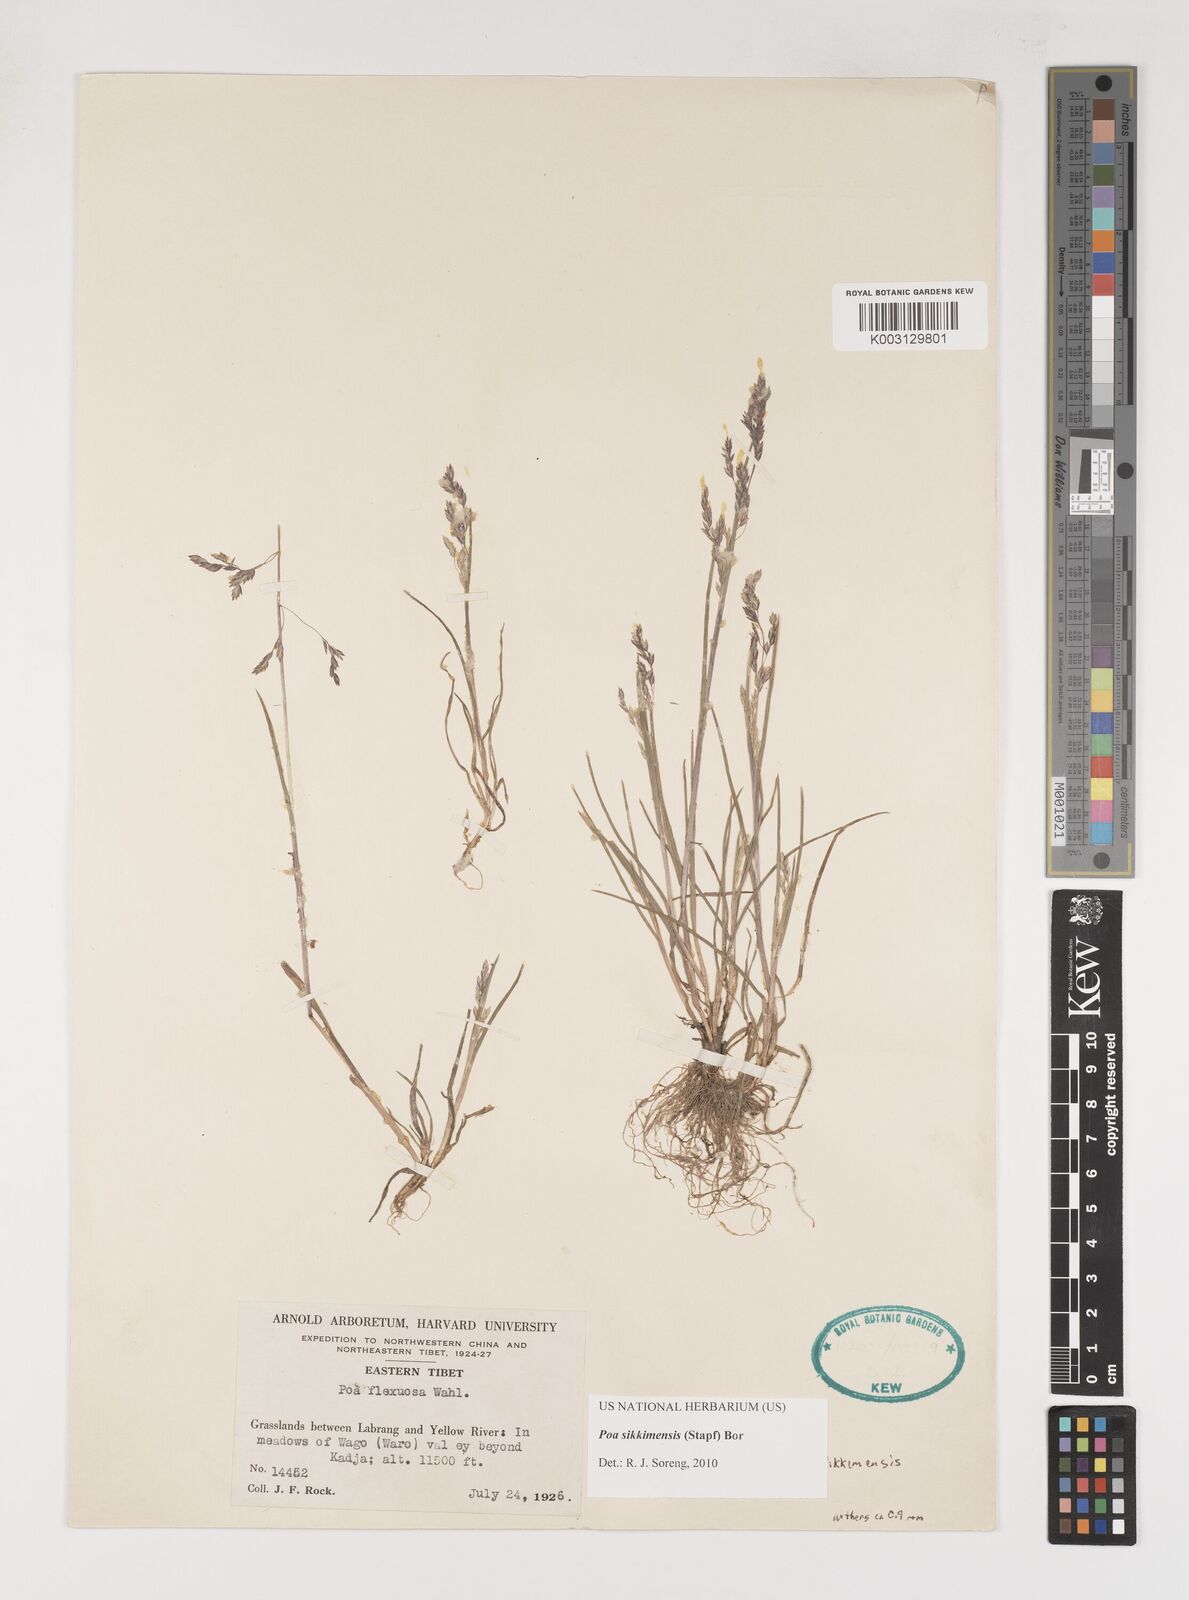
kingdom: Plantae
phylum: Tracheophyta
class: Liliopsida
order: Poales
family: Poaceae
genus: Poa
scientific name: Poa sikkimensis
